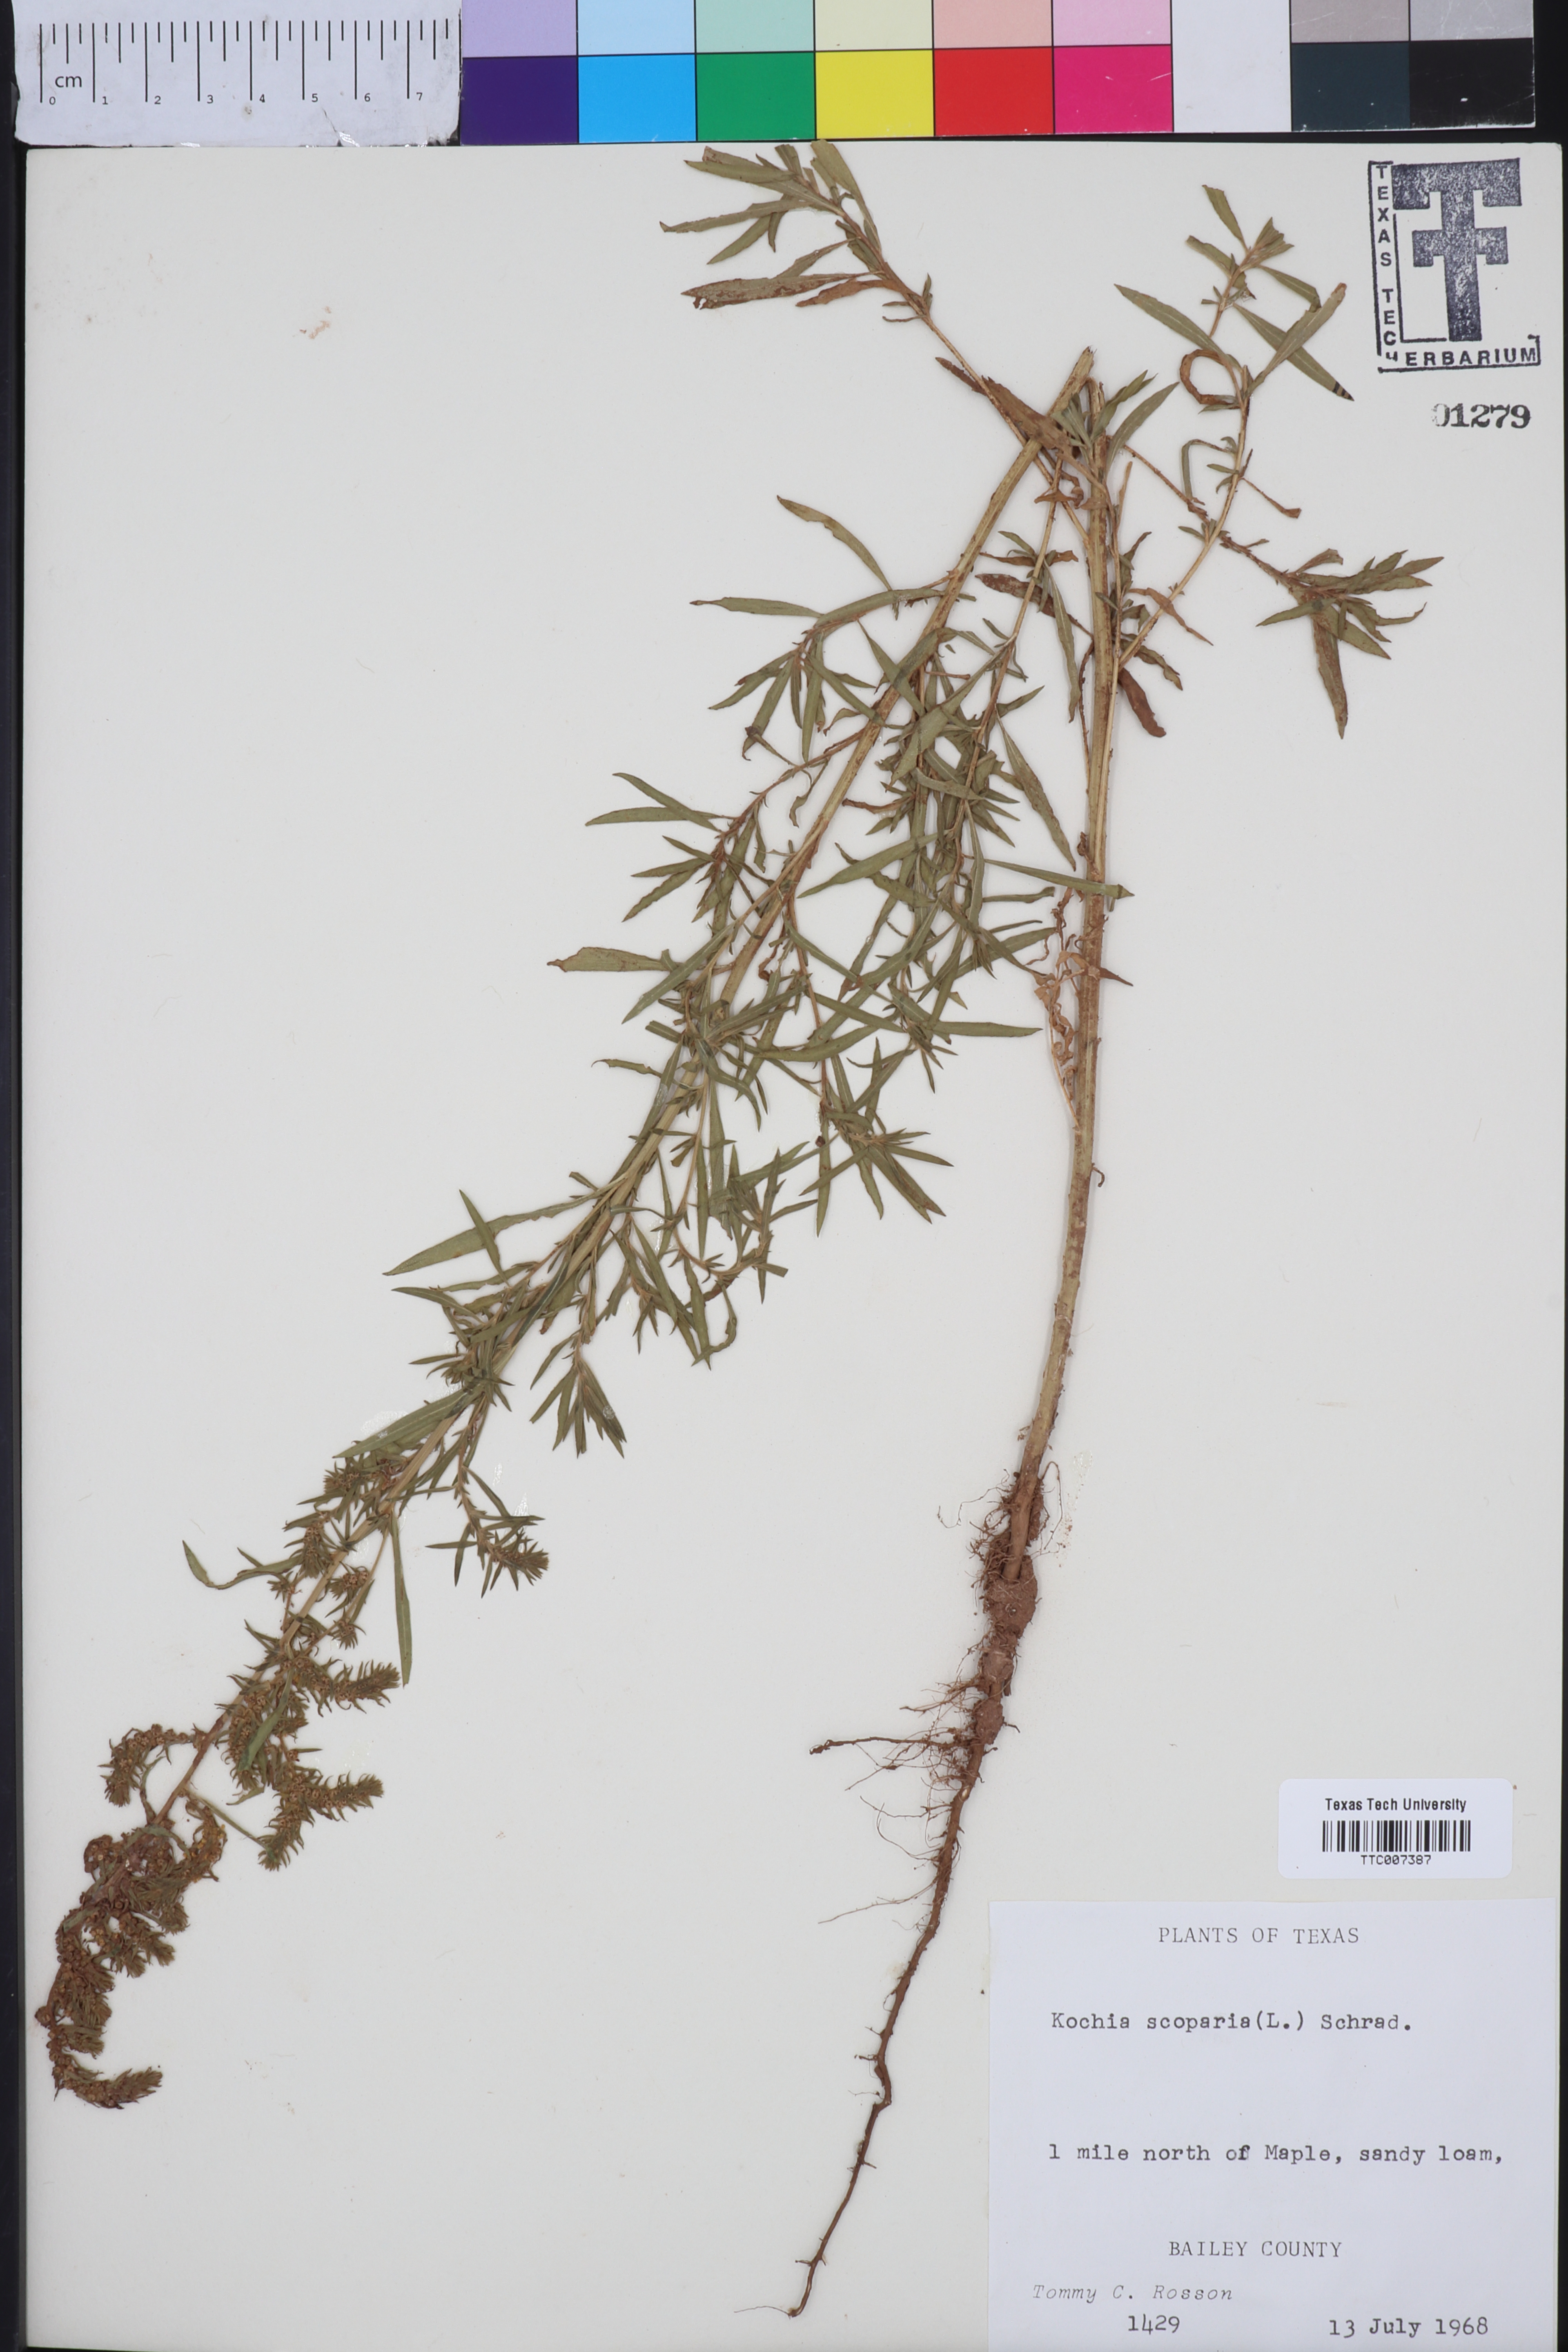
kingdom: Plantae
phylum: Tracheophyta
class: Magnoliopsida
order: Caryophyllales
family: Amaranthaceae
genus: Bassia
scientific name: Bassia scoparia
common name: Belvedere
